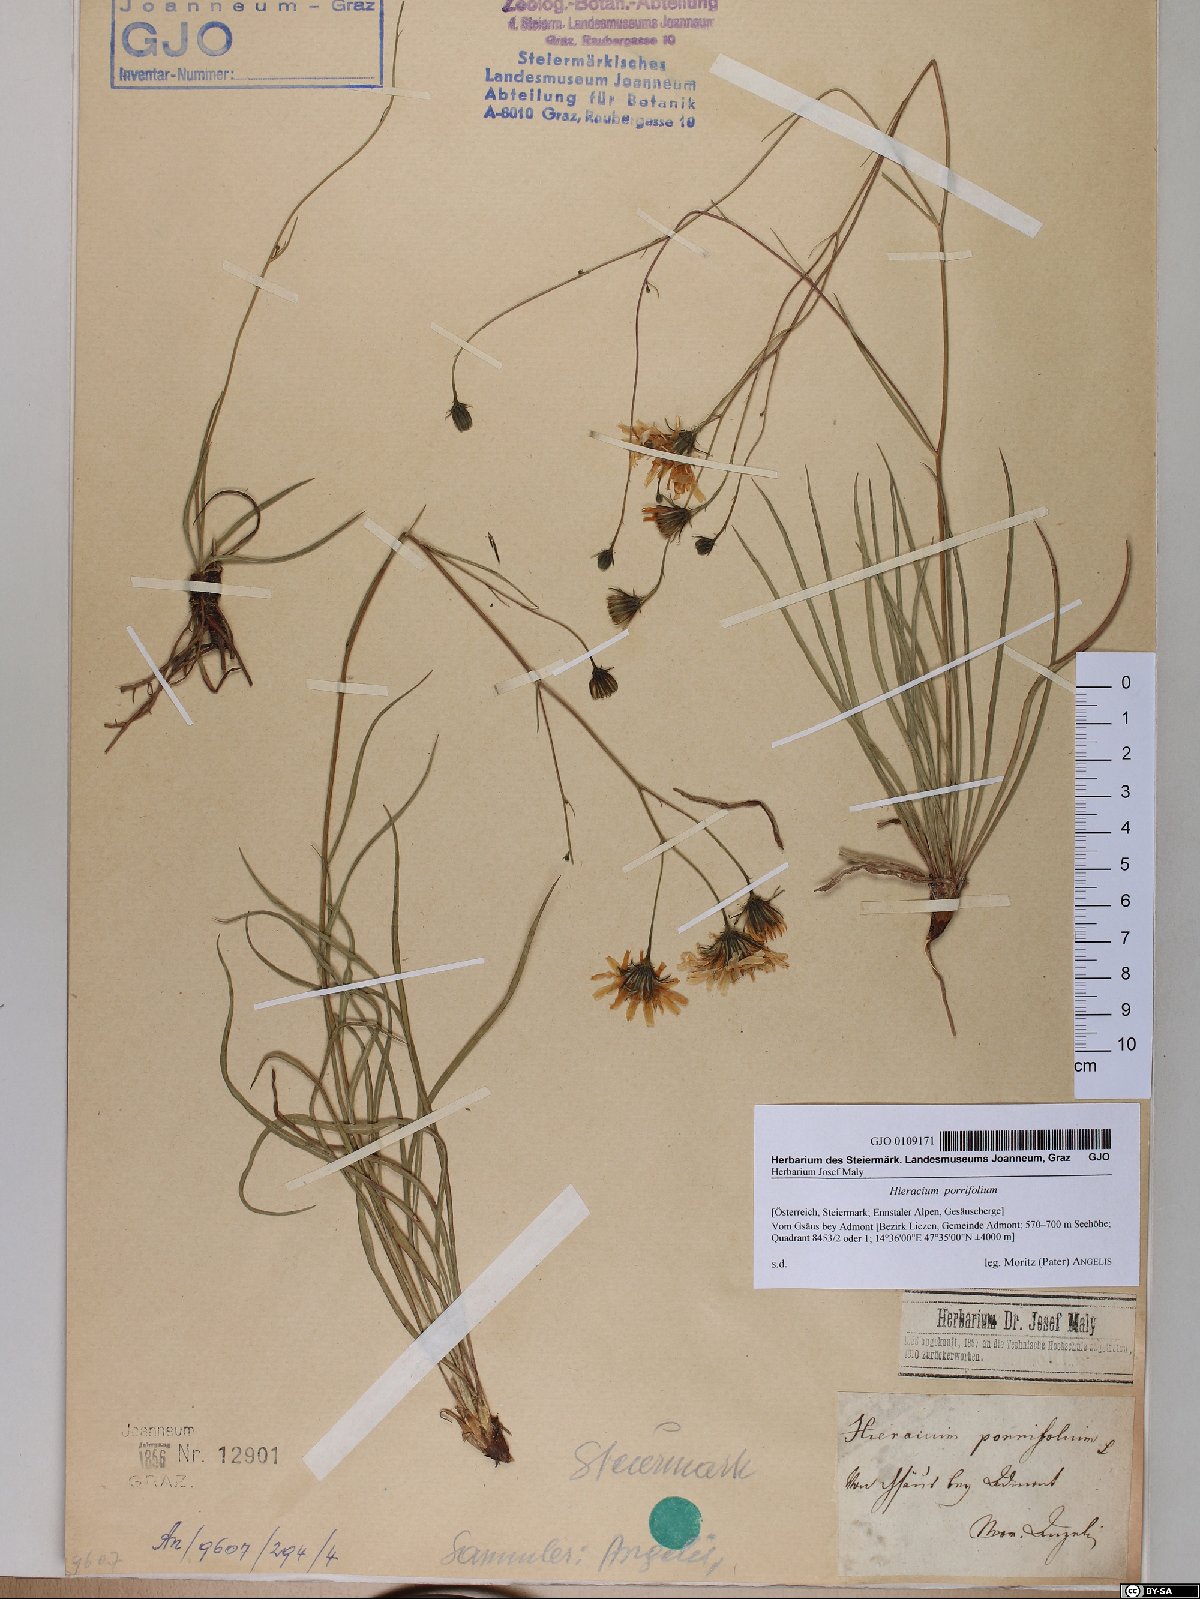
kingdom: Plantae
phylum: Tracheophyta
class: Magnoliopsida
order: Asterales
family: Asteraceae
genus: Hieracium
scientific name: Hieracium porrifolium
